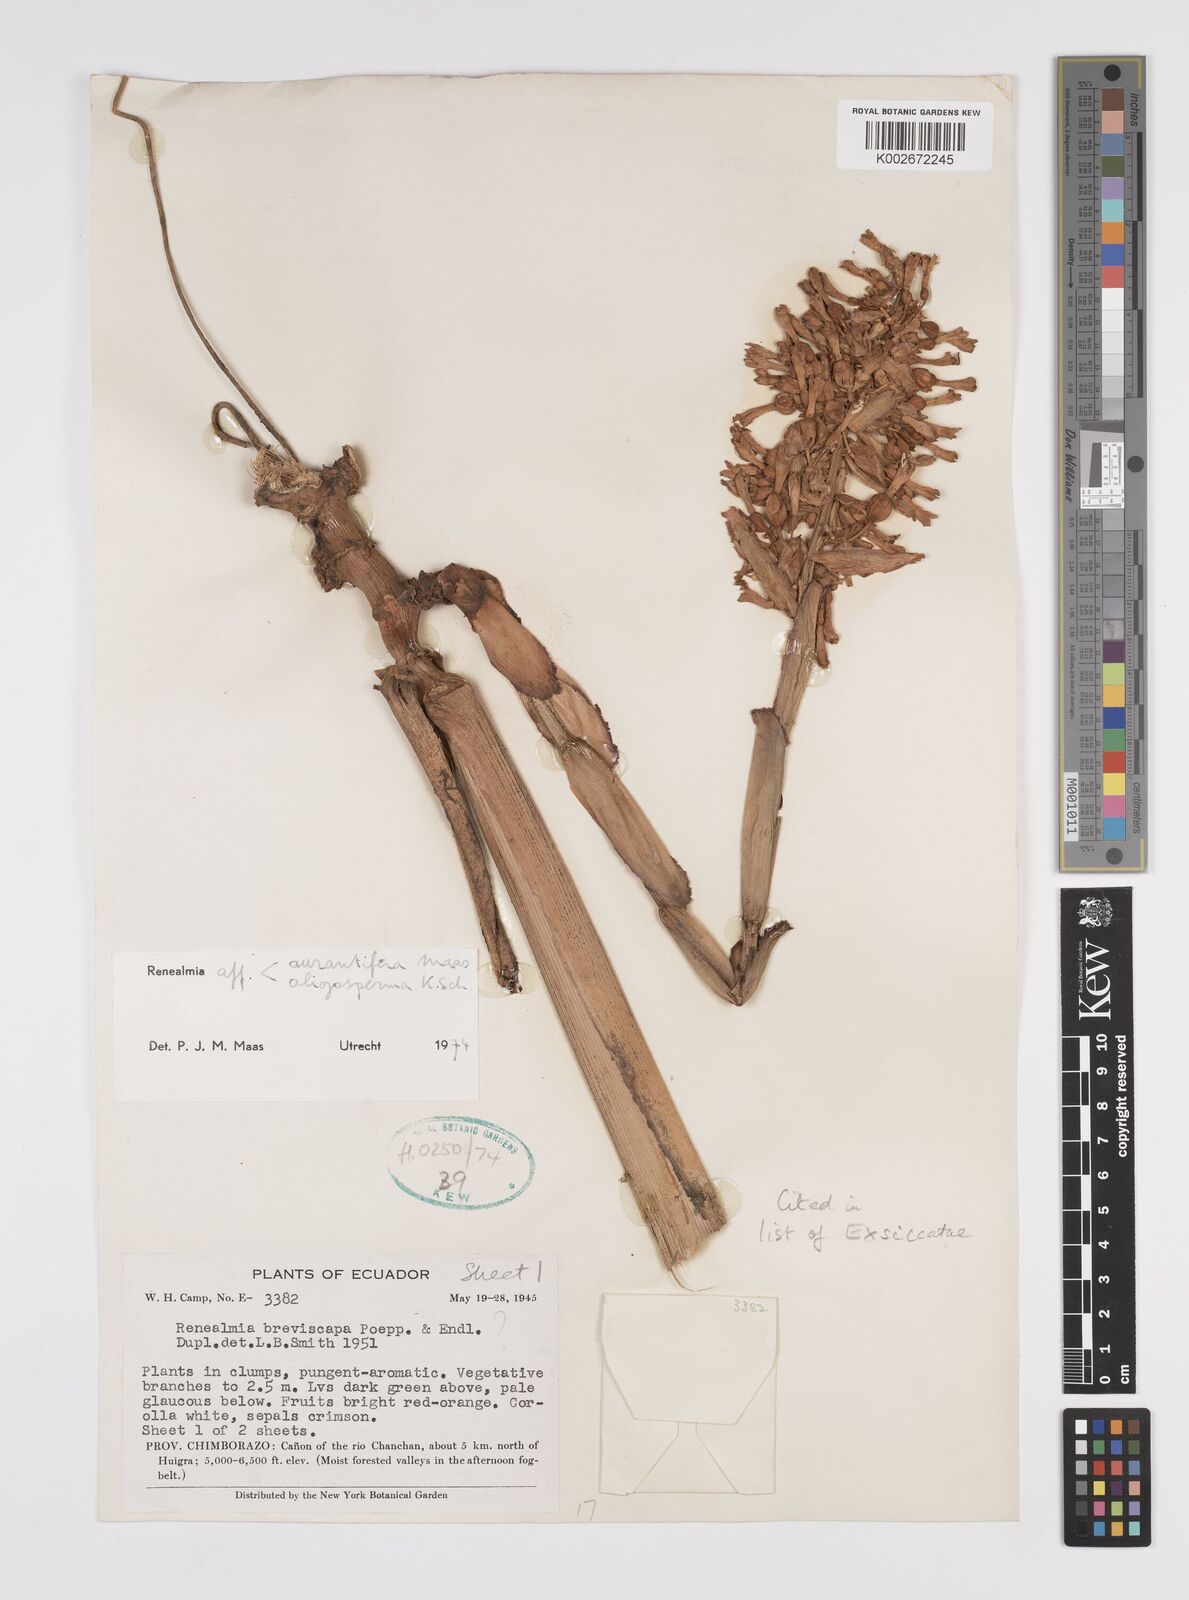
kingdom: Plantae
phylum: Tracheophyta
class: Liliopsida
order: Zingiberales
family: Zingiberaceae
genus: Renealmia
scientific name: Renealmia aurantiifera
